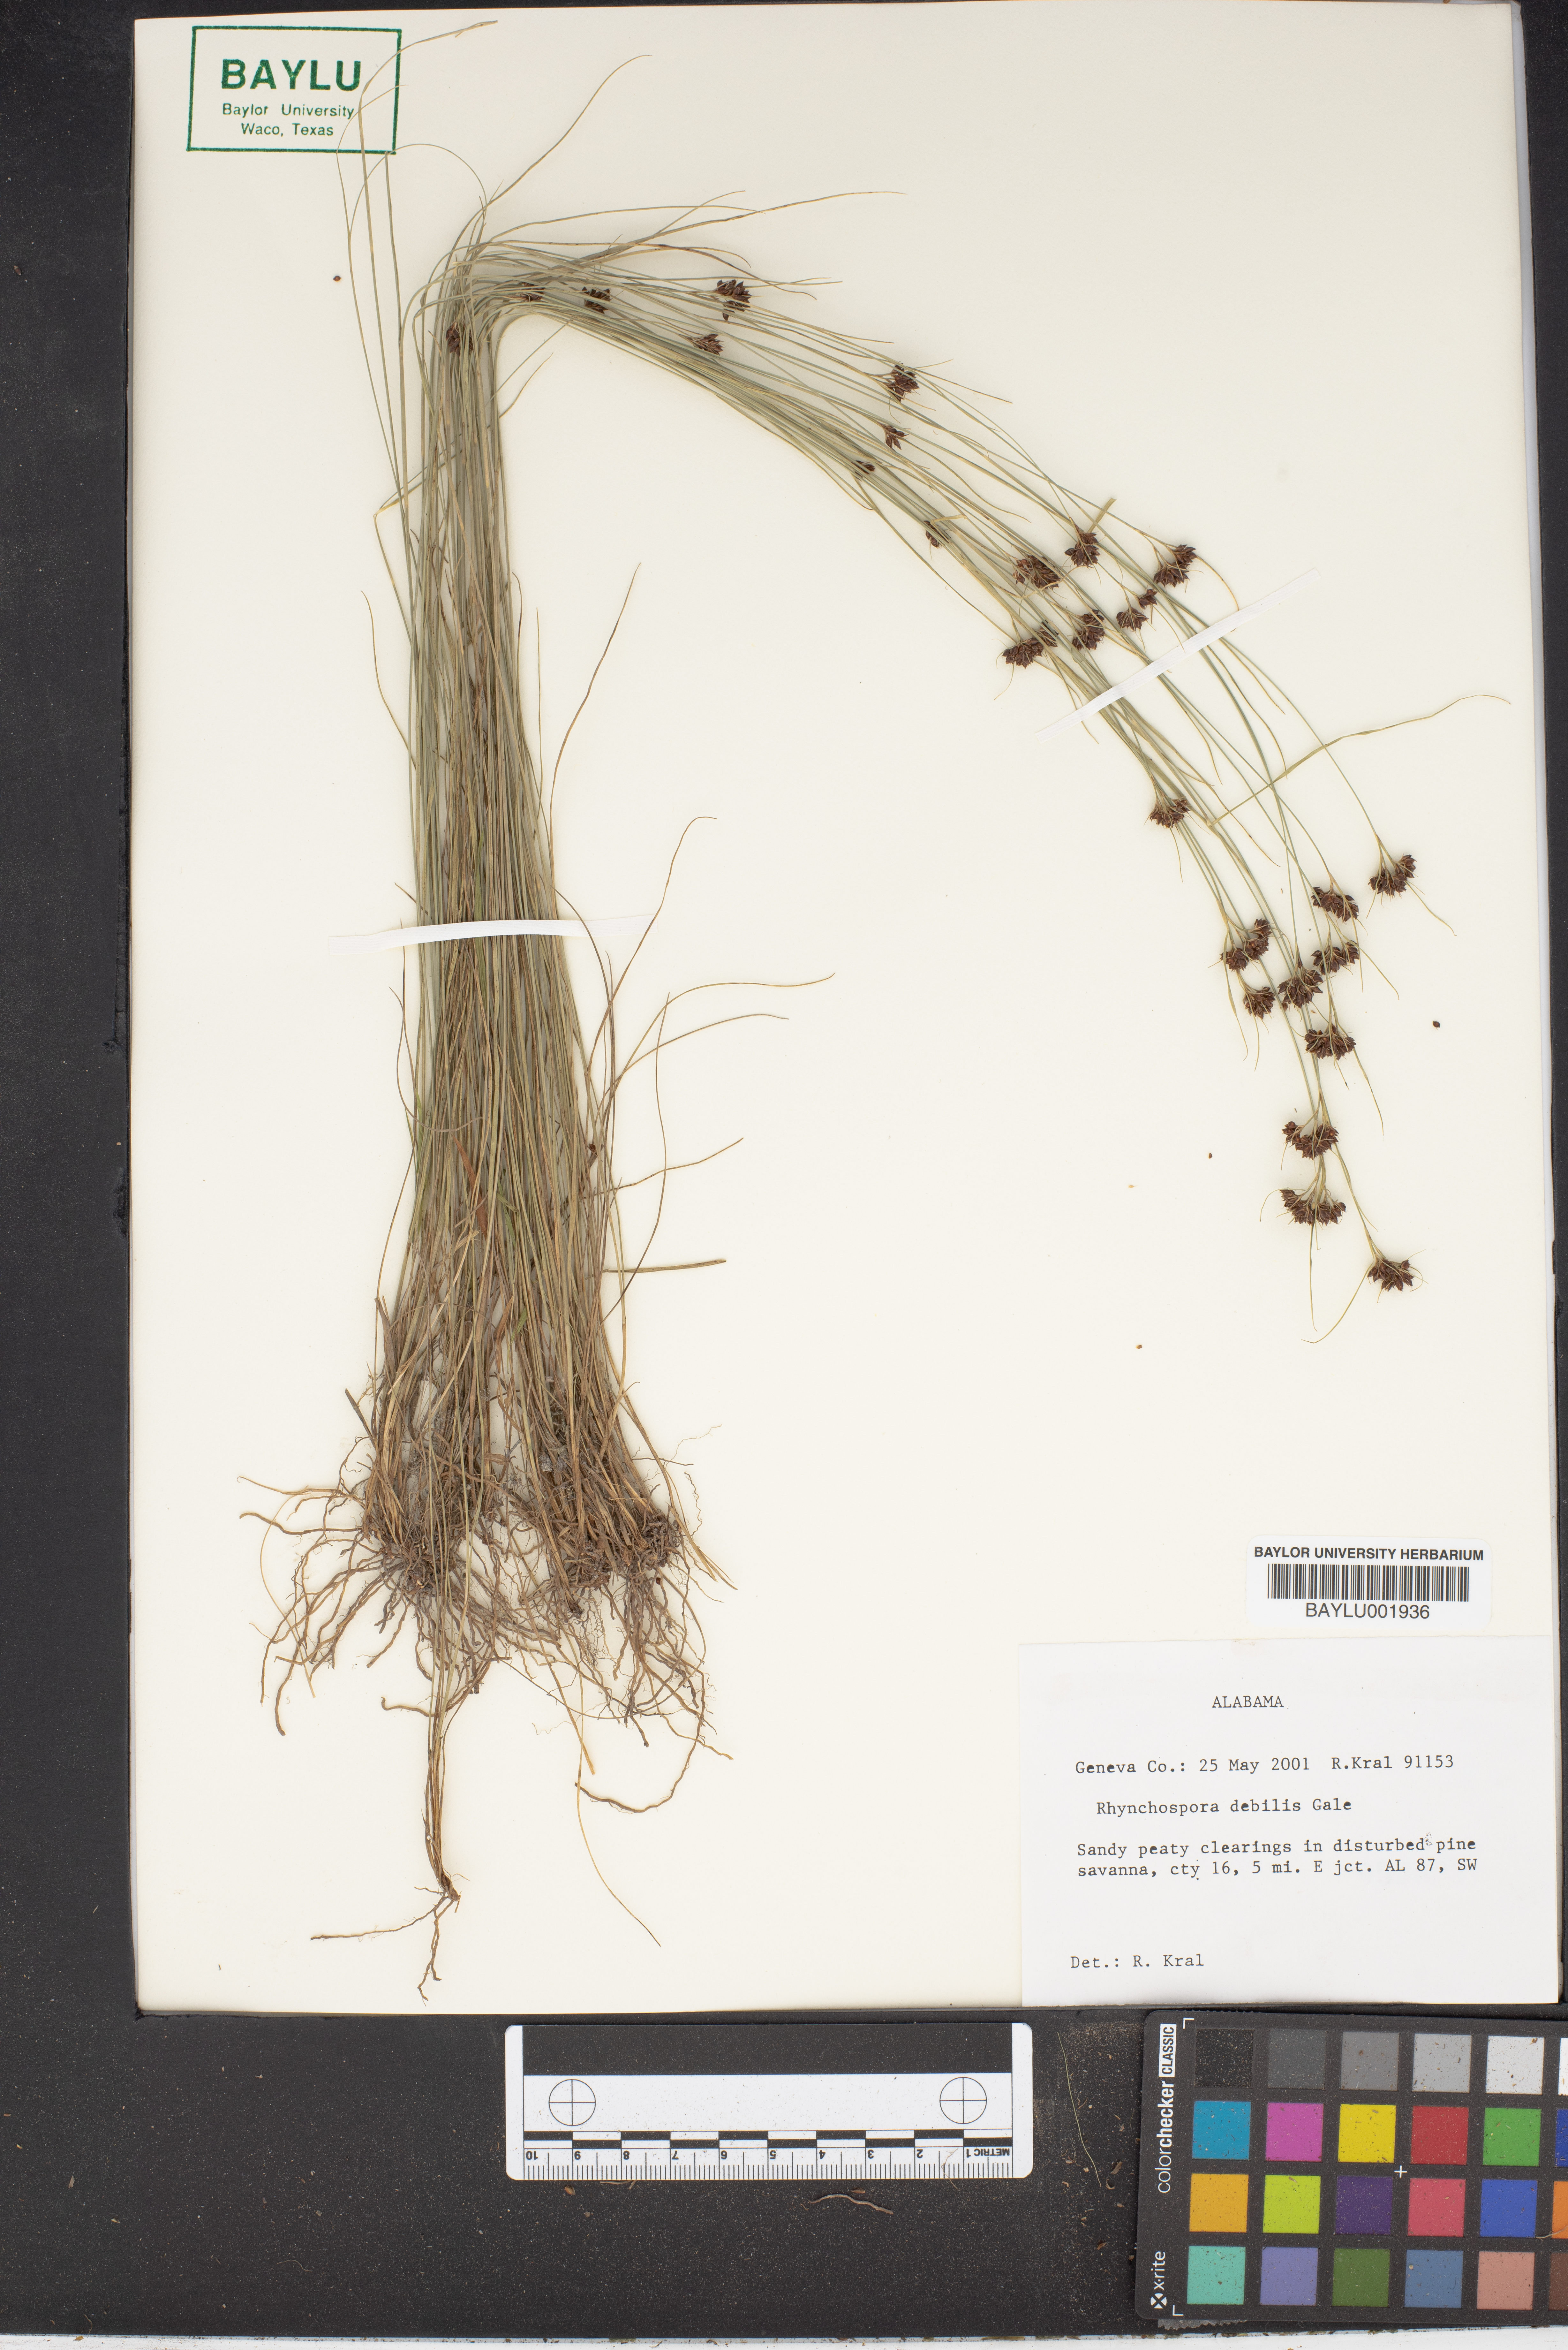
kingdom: Plantae
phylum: Tracheophyta
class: Liliopsida
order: Poales
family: Cyperaceae
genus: Rhynchospora
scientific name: Rhynchospora debilis
